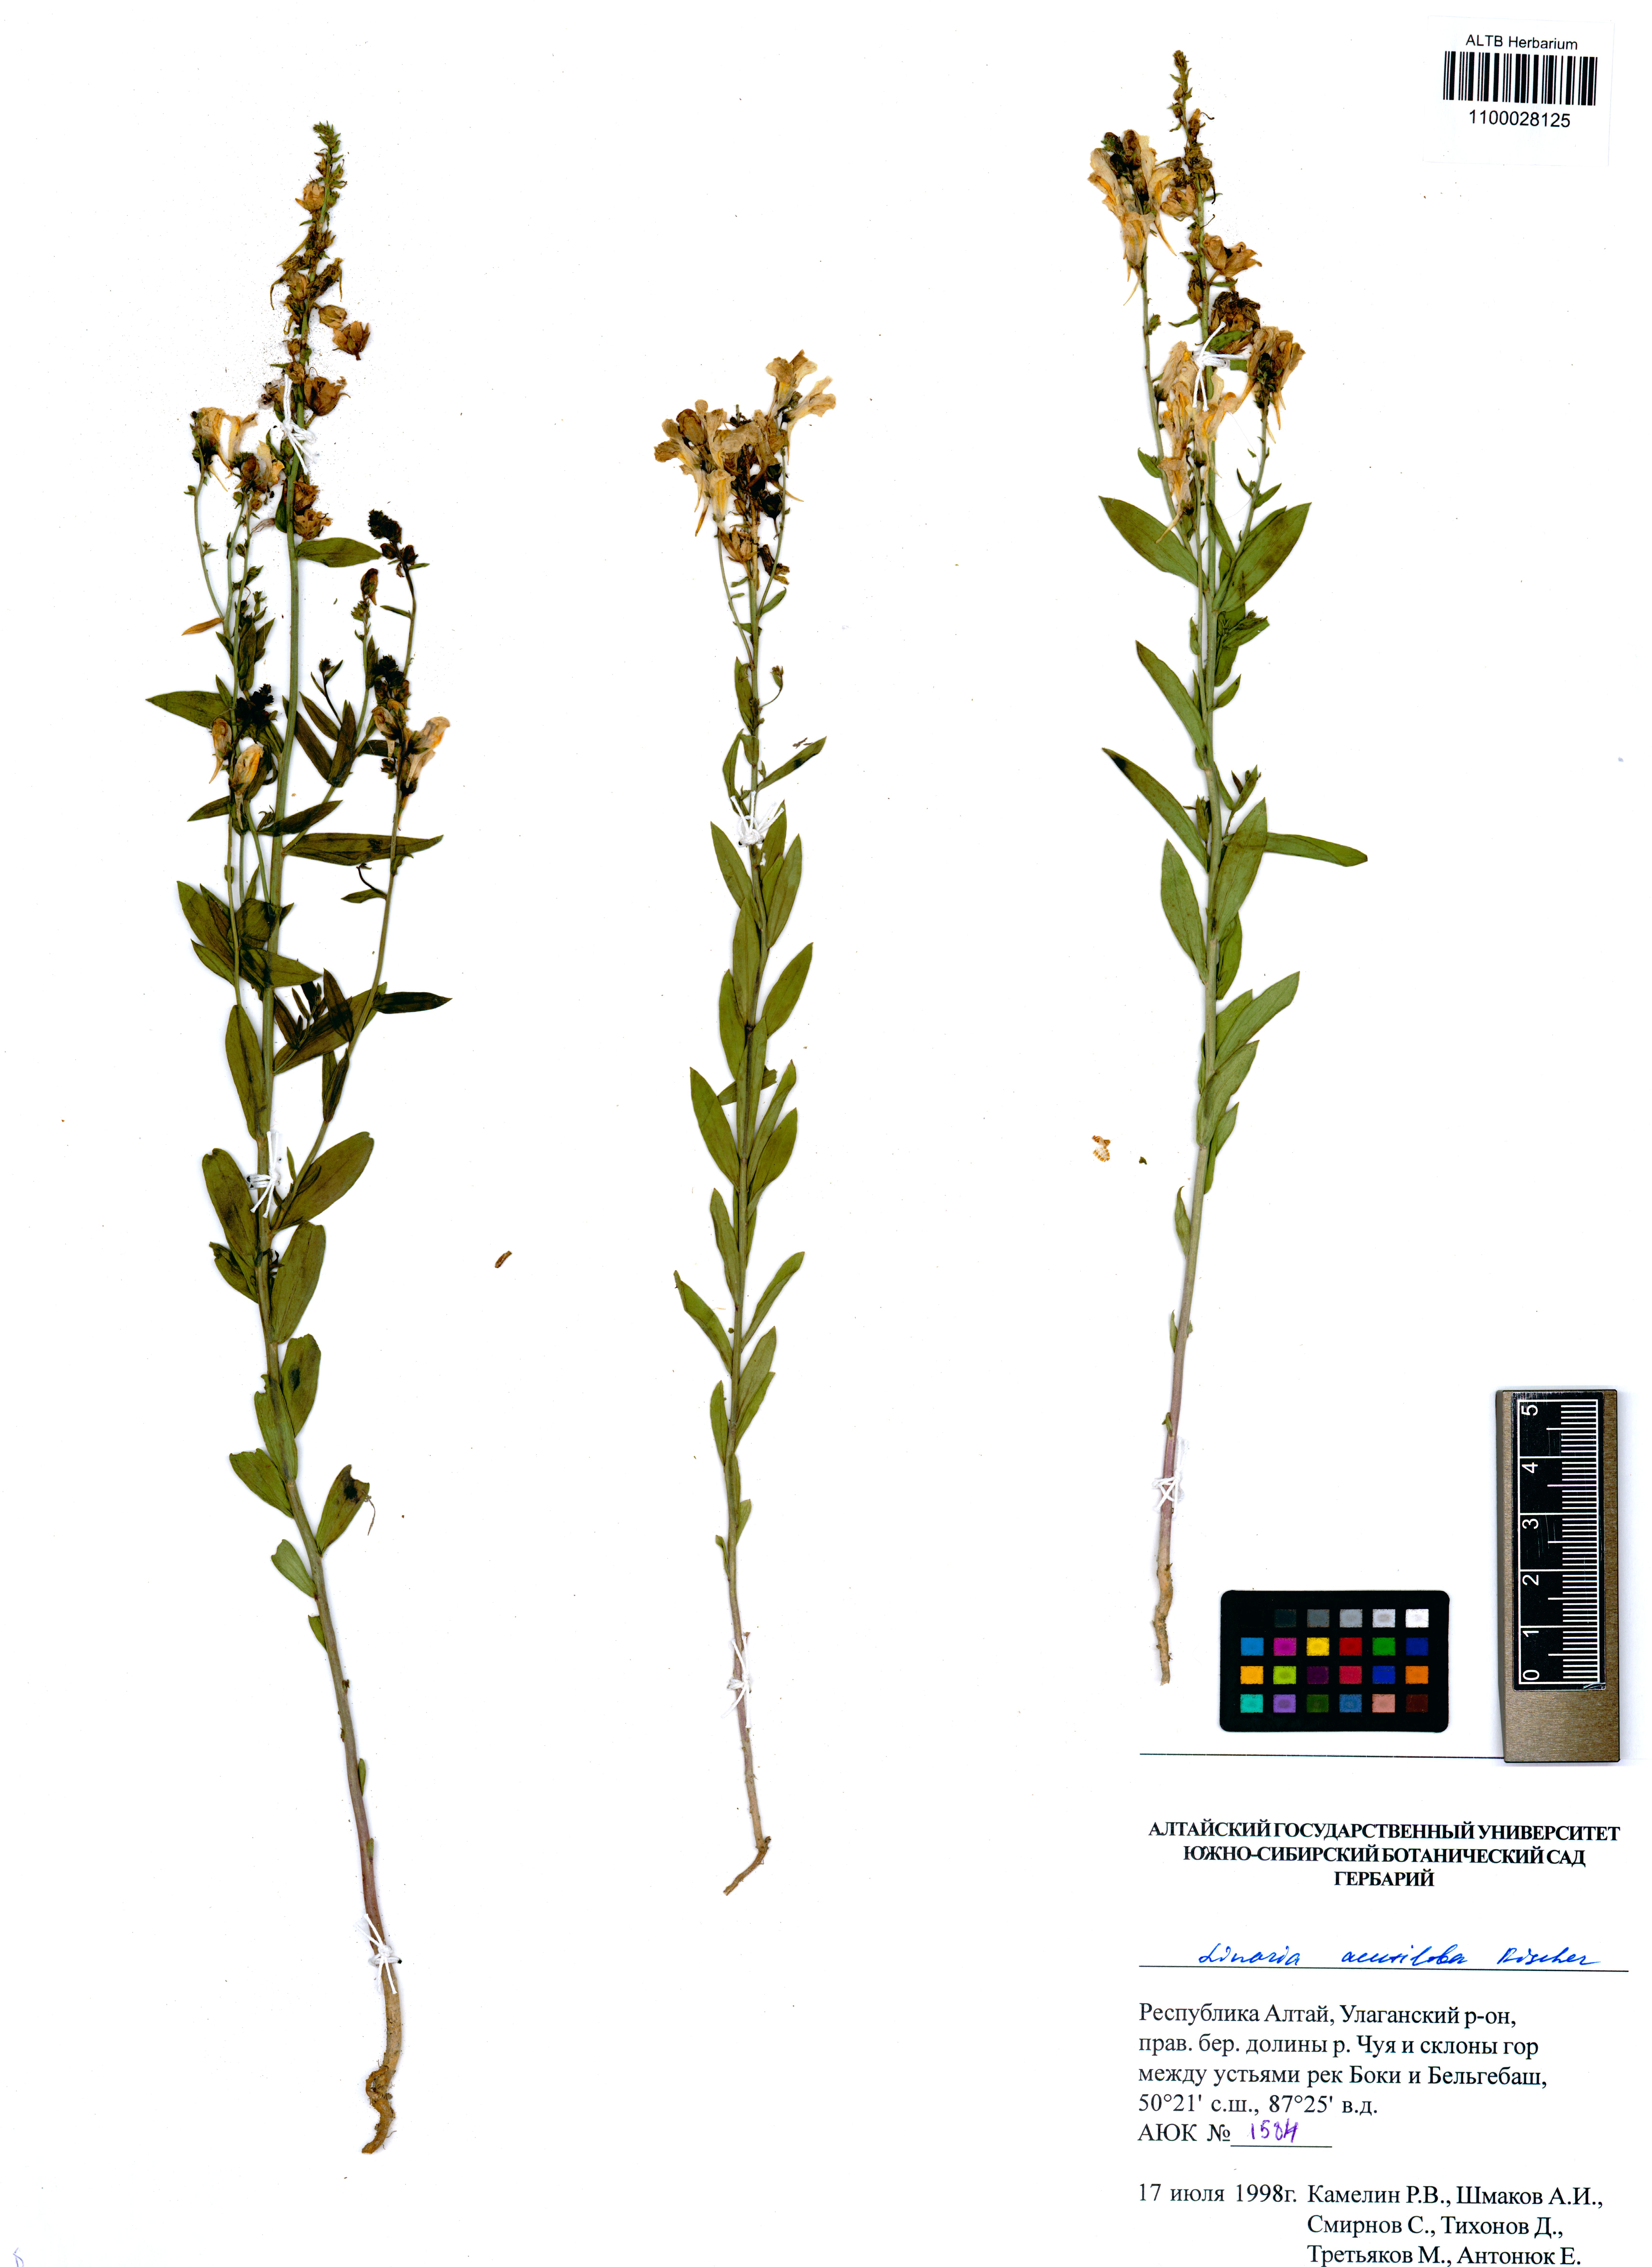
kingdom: Plantae
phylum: Tracheophyta
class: Magnoliopsida
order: Lamiales
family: Plantaginaceae
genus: Linaria
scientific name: Linaria acutiloba
